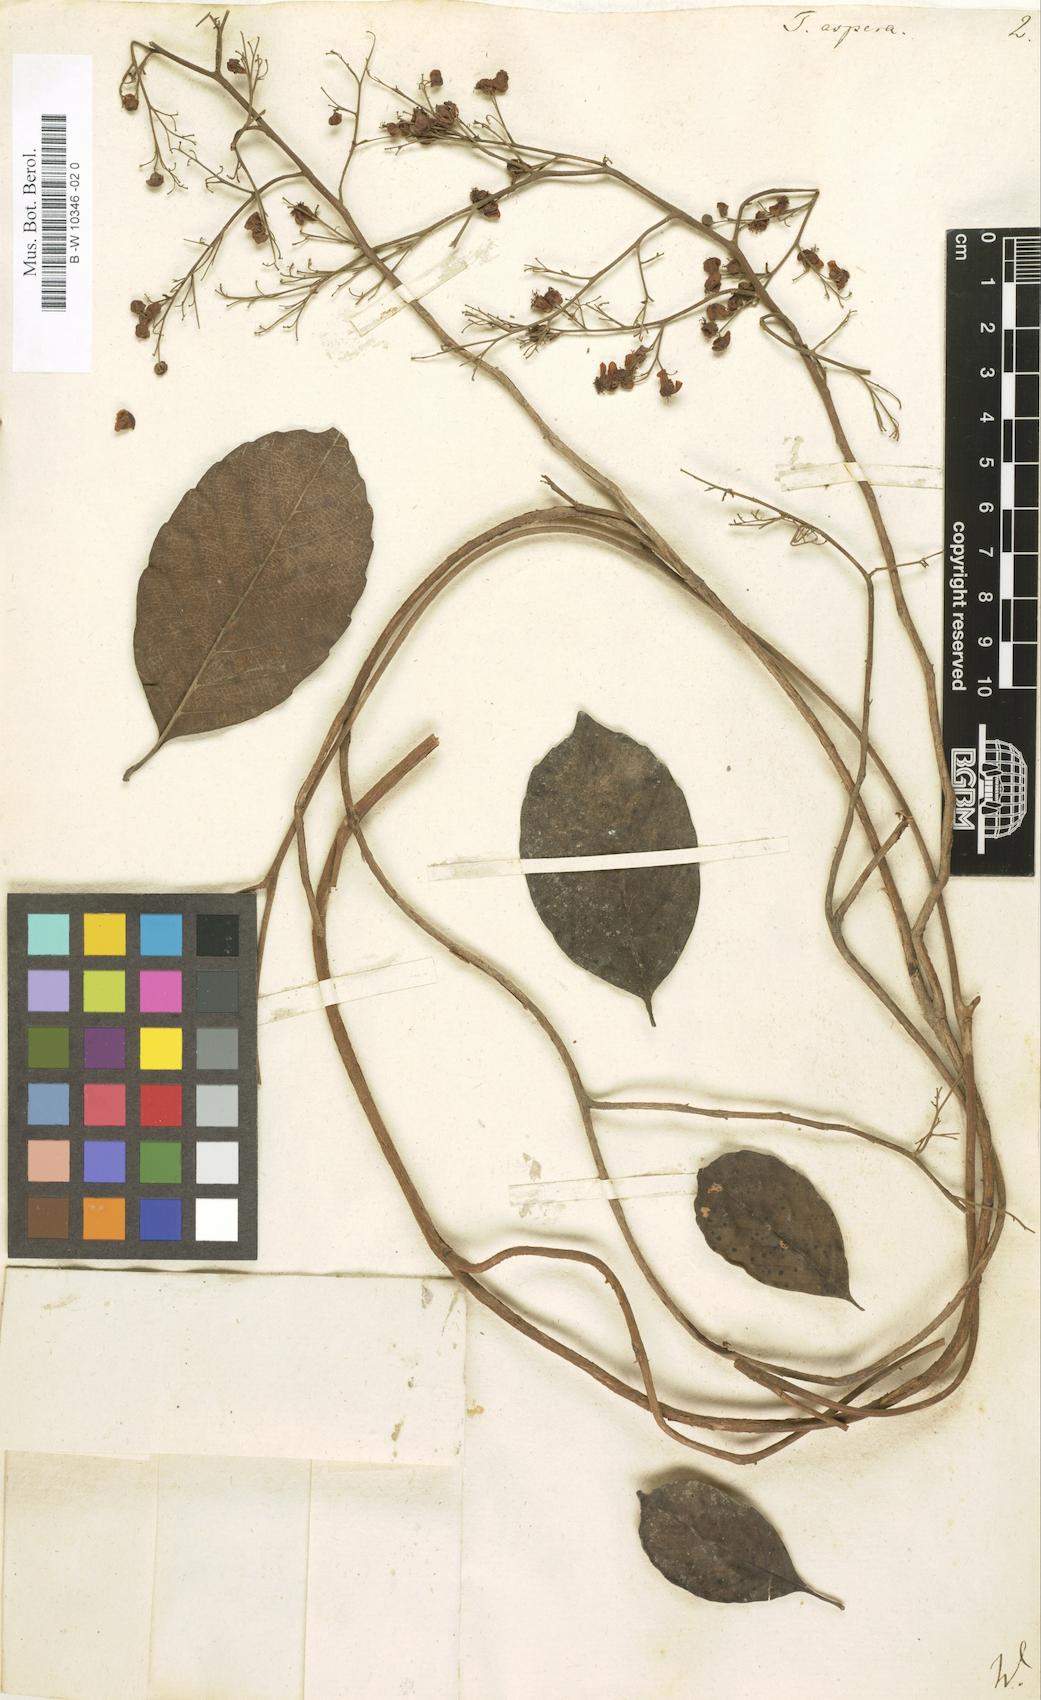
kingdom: Plantae
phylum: Tracheophyta
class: Magnoliopsida
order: Dilleniales
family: Dilleniaceae
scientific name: Dilleniaceae
